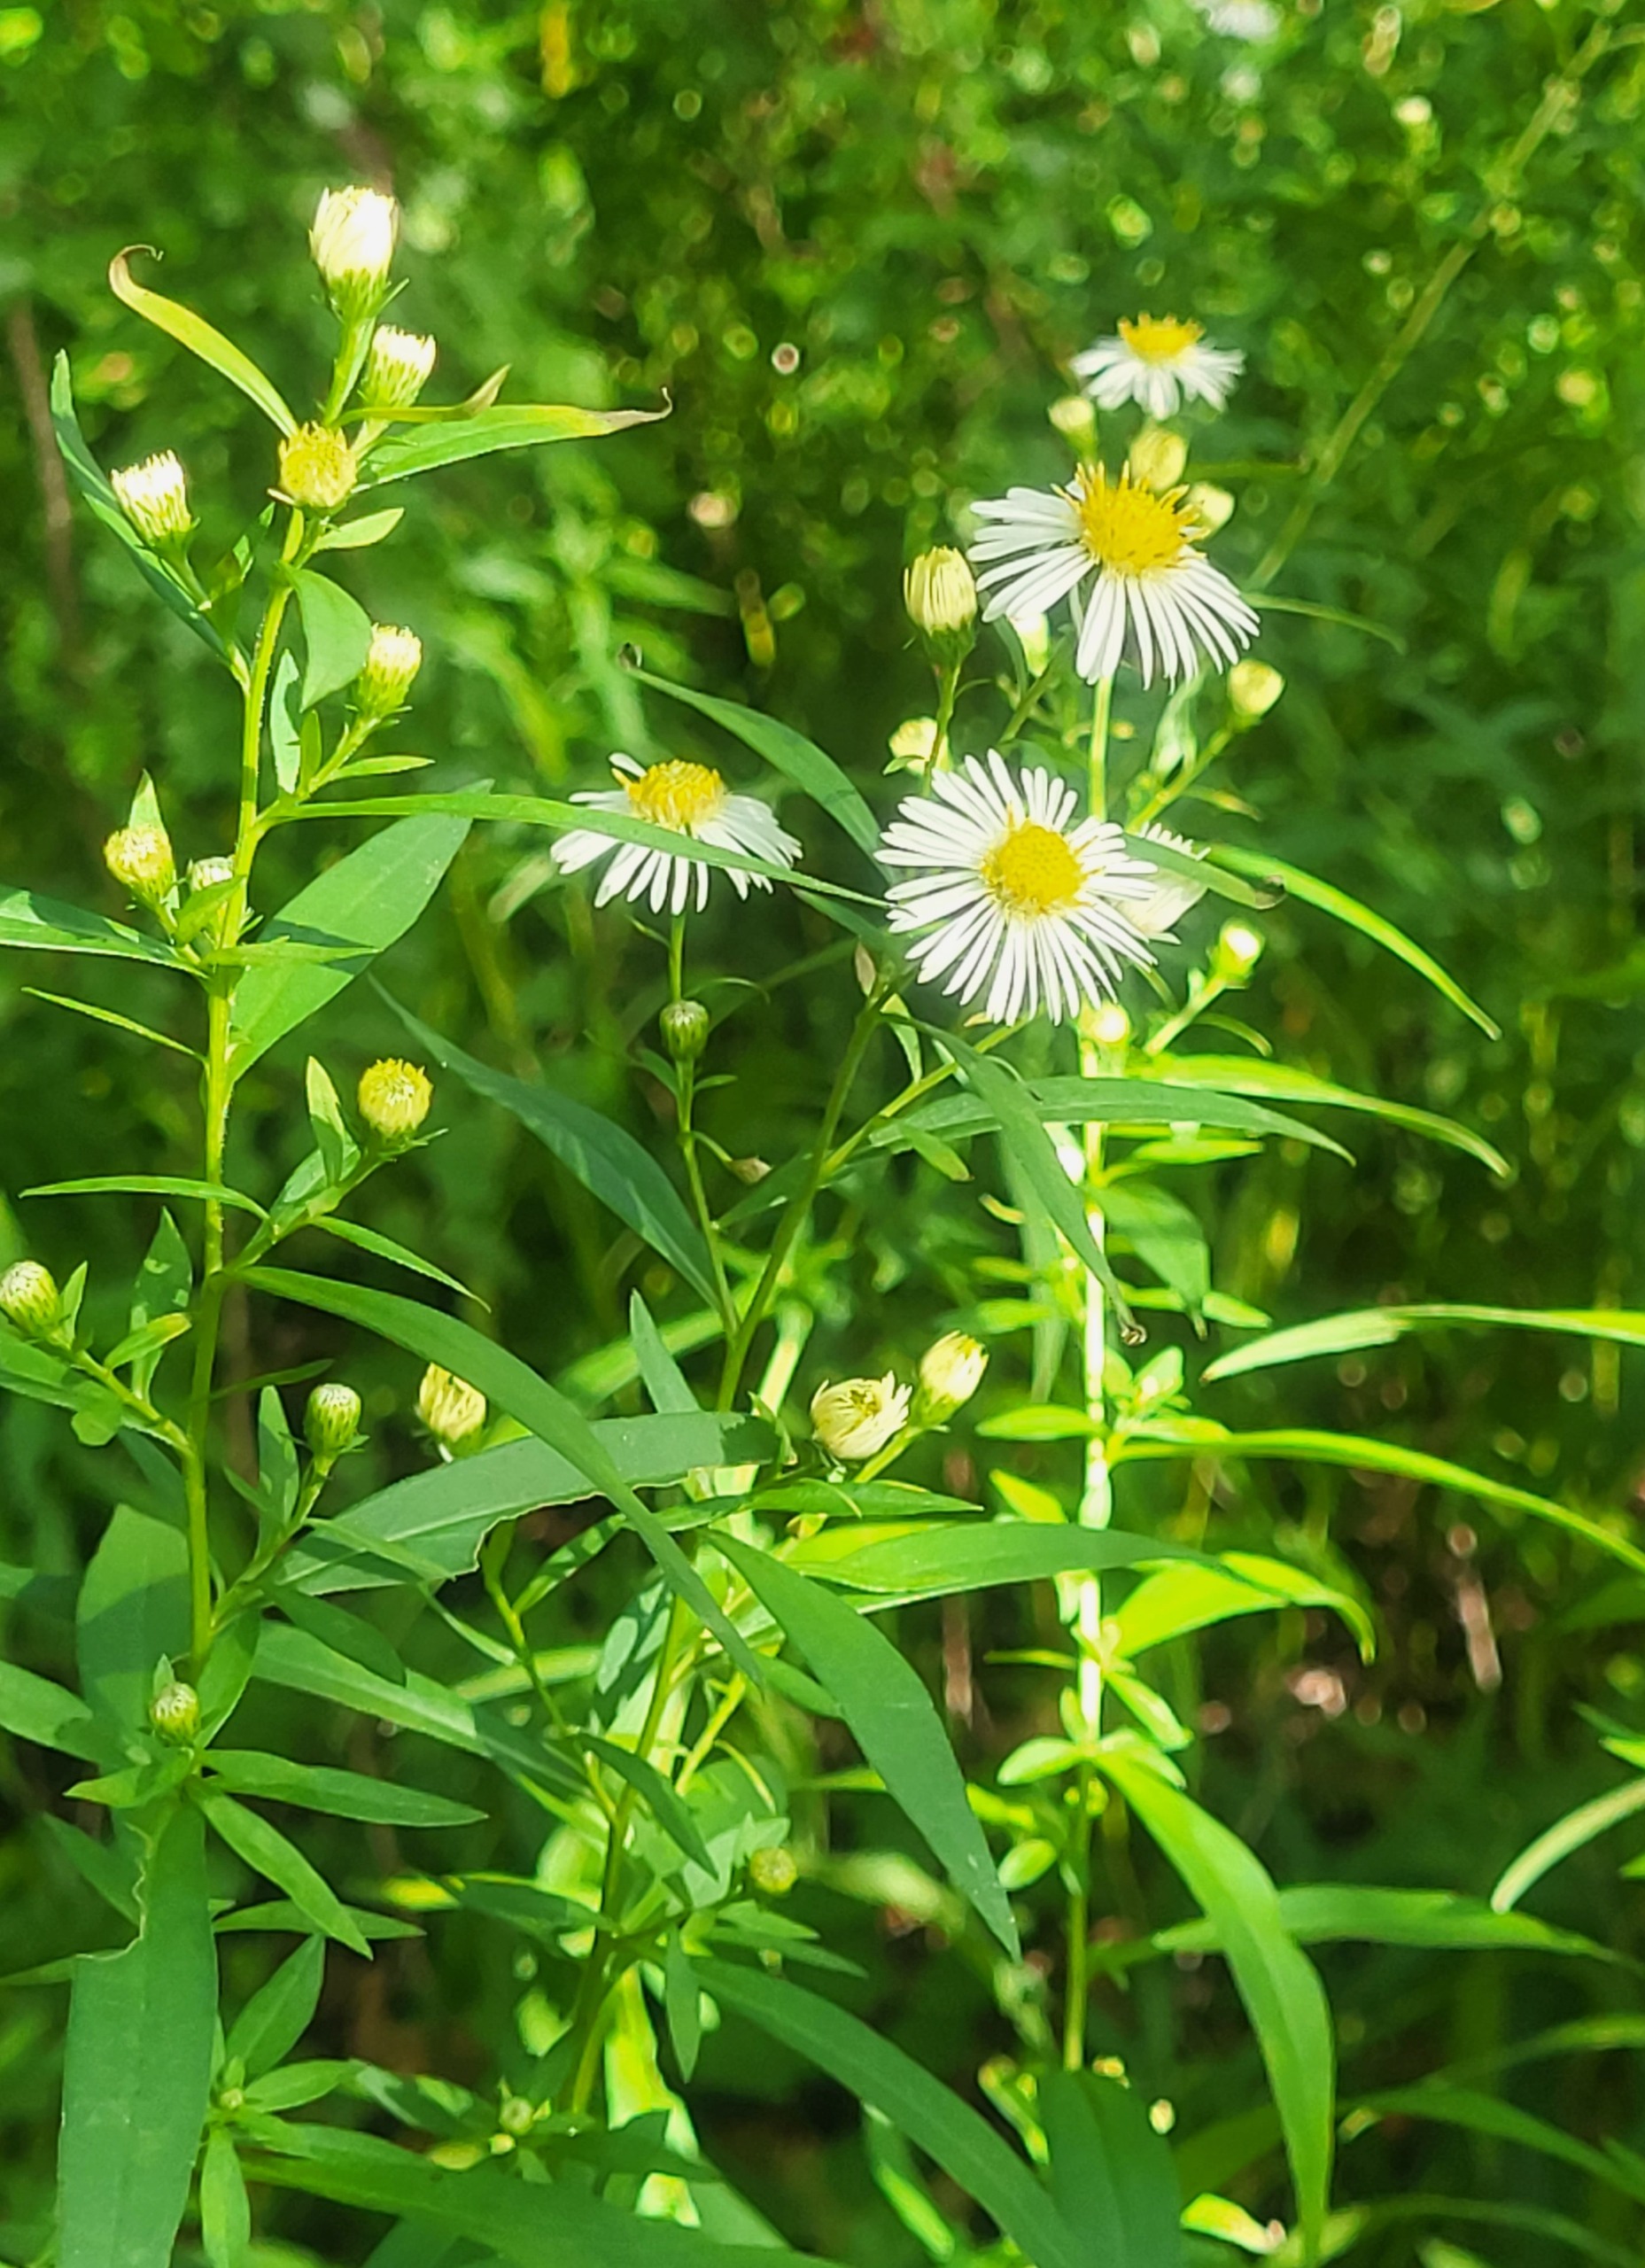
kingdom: Plantae
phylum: Tracheophyta
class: Magnoliopsida
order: Asterales
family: Asteraceae
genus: Erigeron
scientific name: Erigeron annuus
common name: Smalstråle
